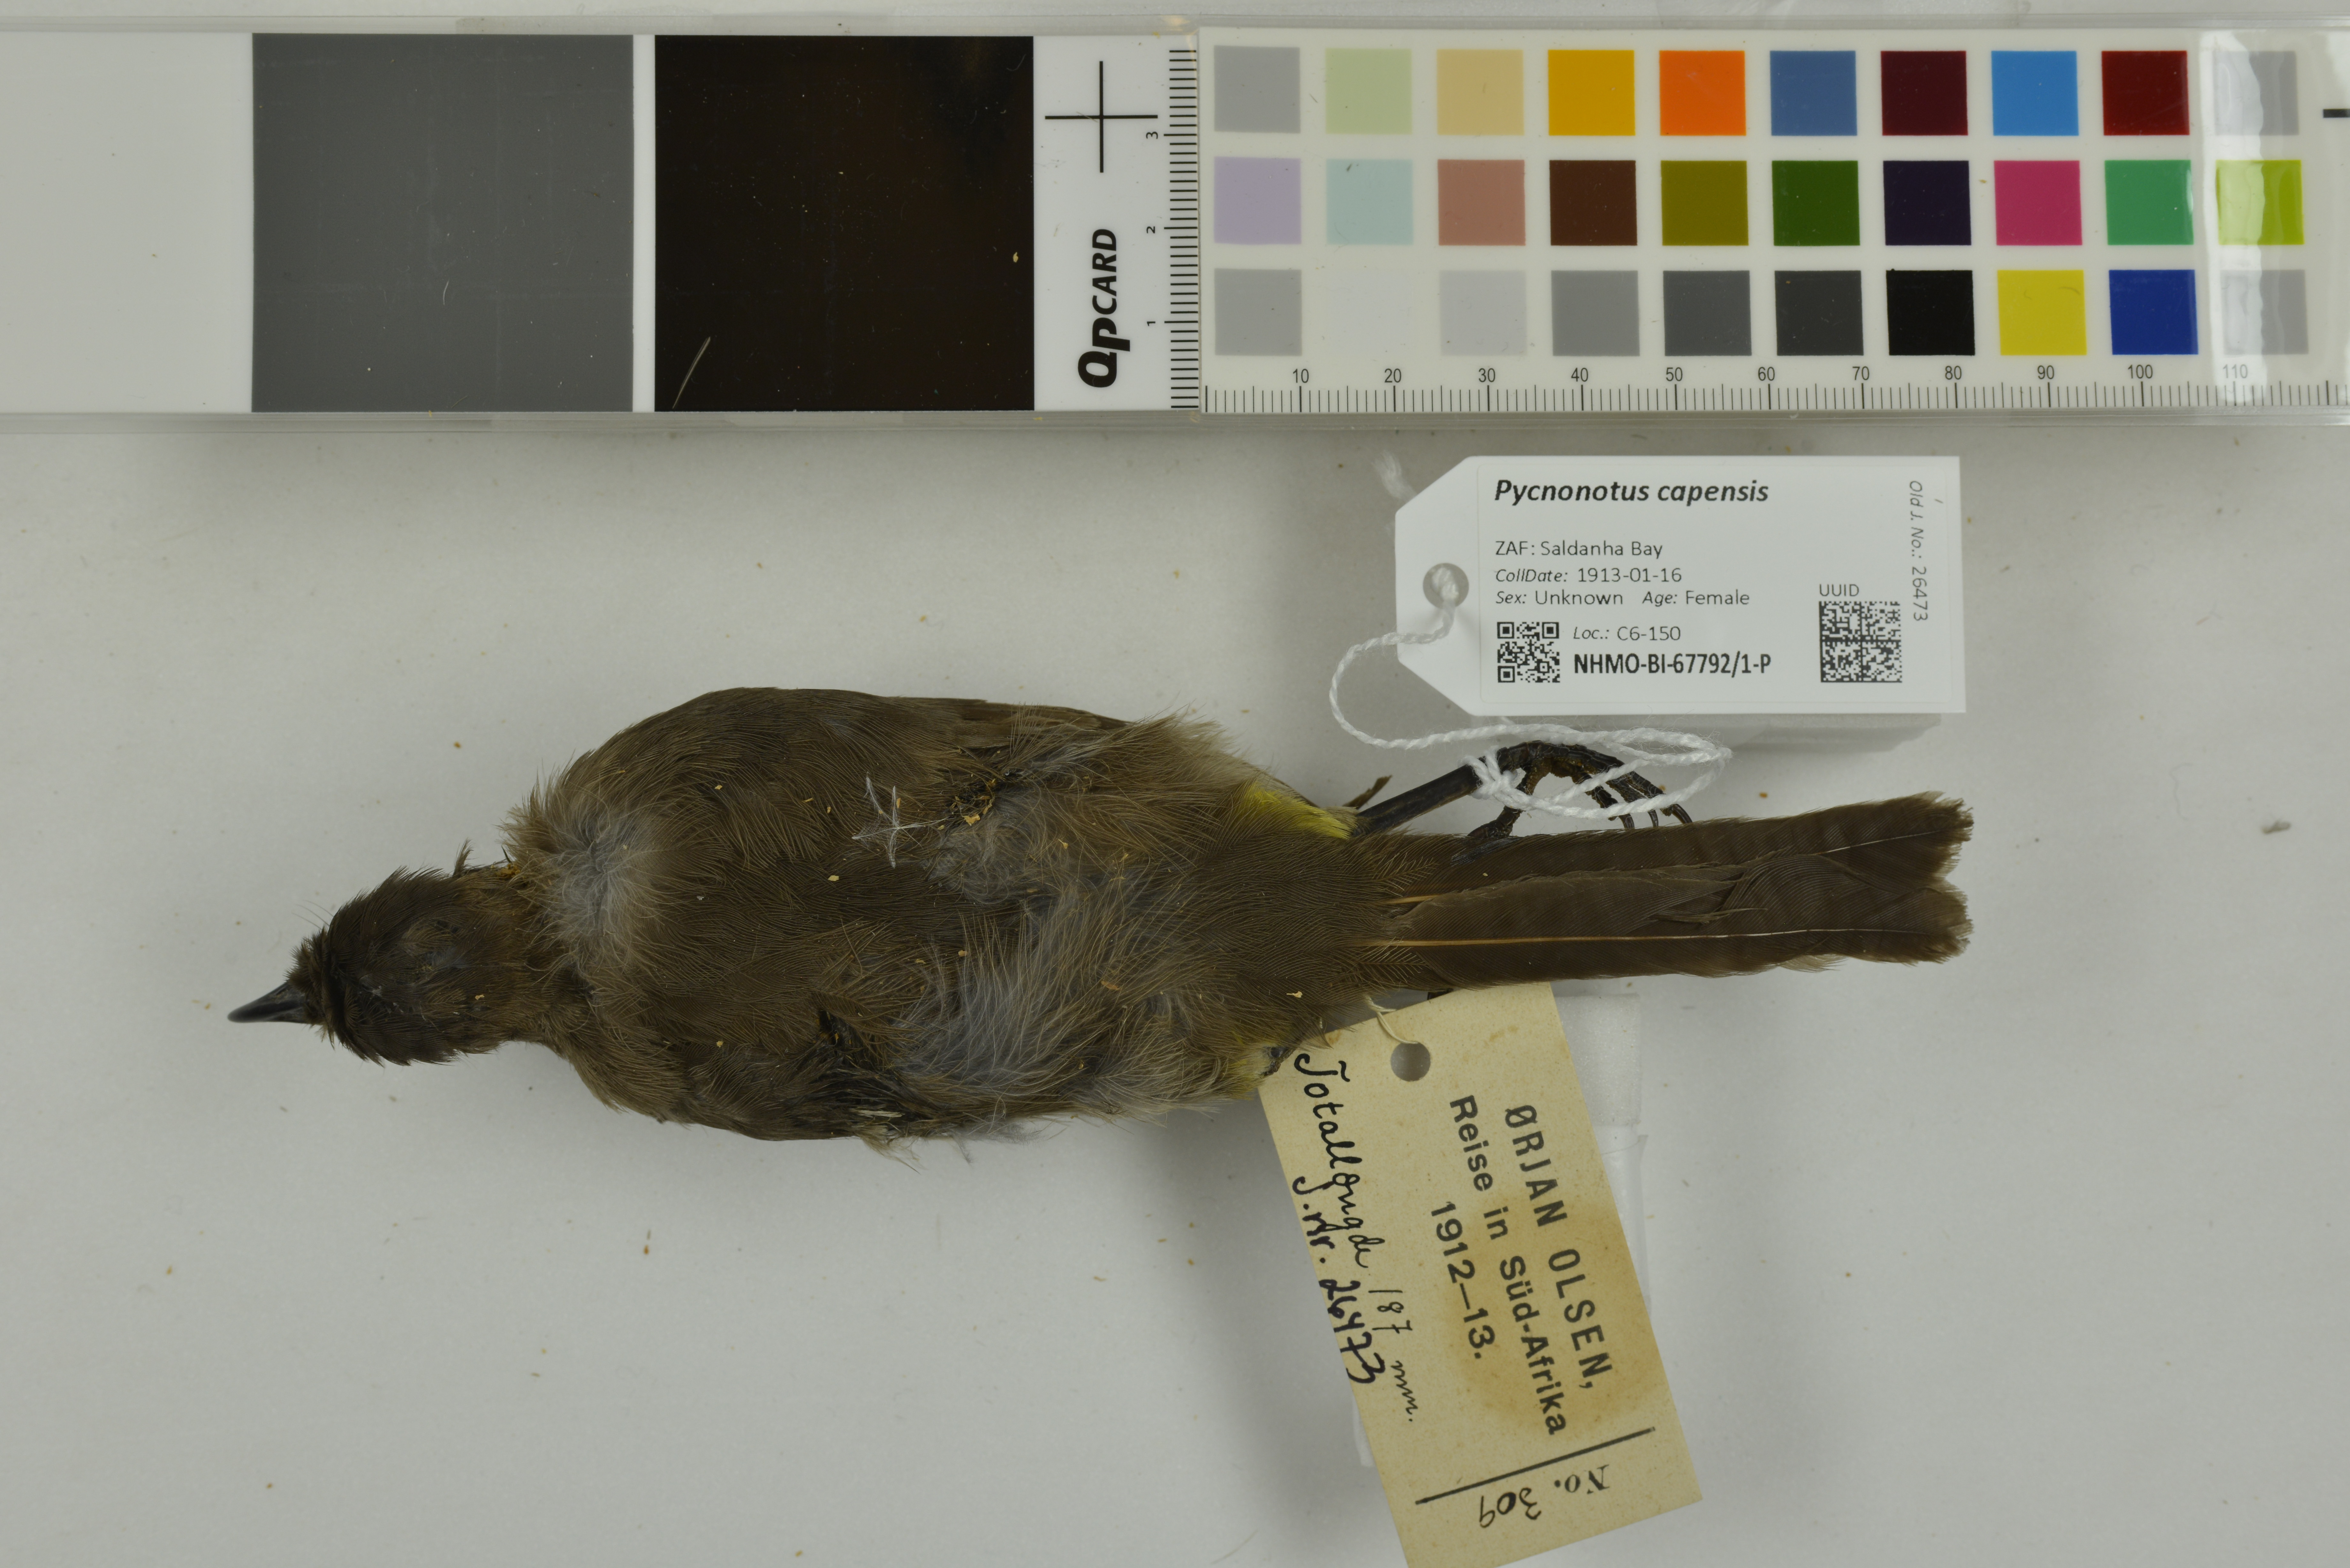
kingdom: Animalia
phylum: Chordata
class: Aves
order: Passeriformes
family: Pycnonotidae
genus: Pycnonotus
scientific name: Pycnonotus capensis
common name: Cape bulbul
